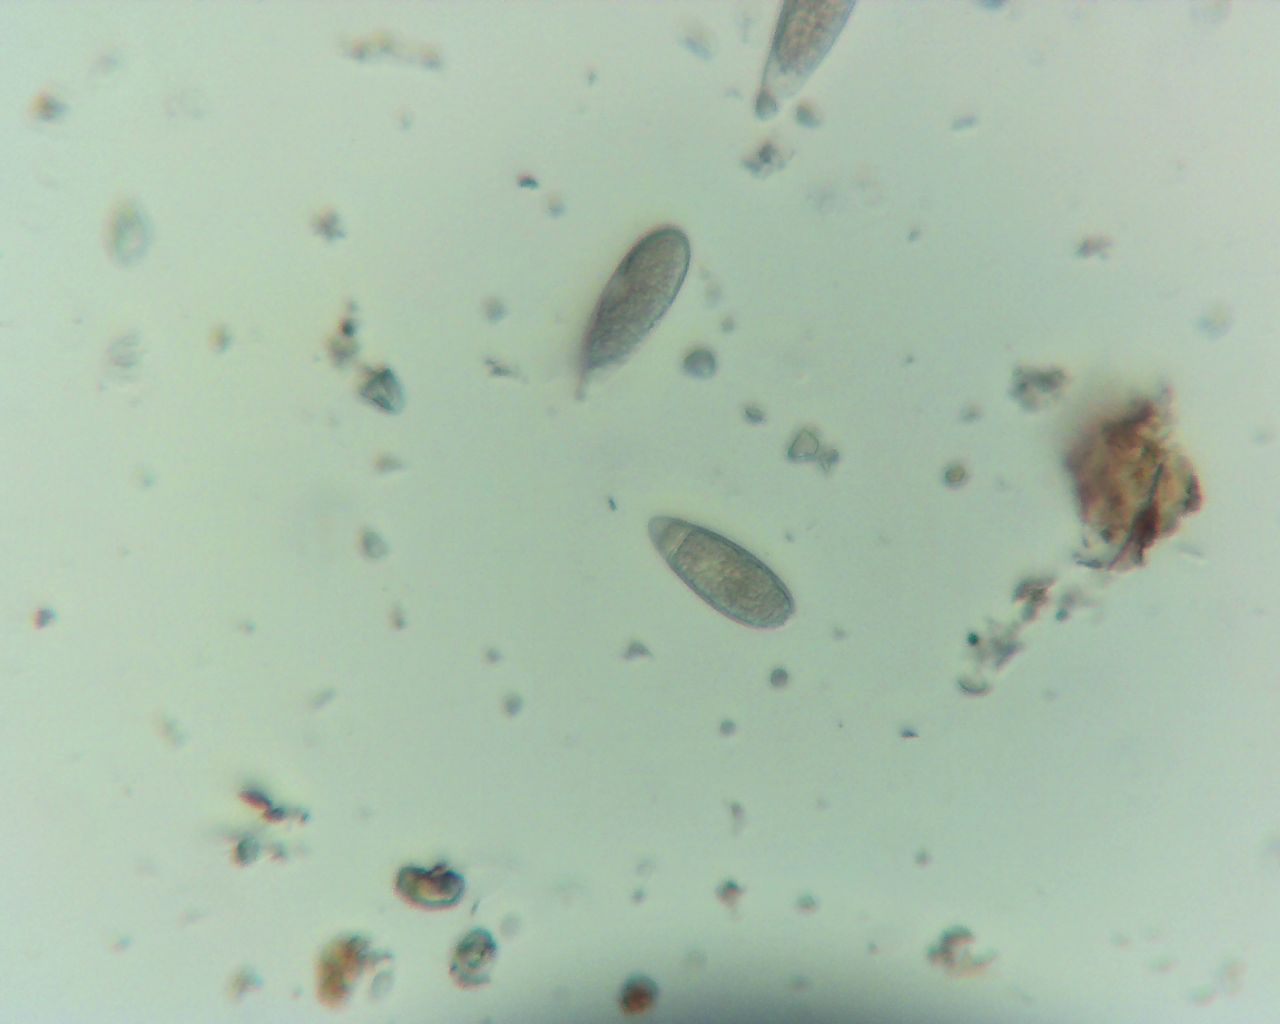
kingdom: Fungi
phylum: Ascomycota
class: Sordariomycetes
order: Xylariales
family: Pseudomassariaceae
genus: Pseudomassaria
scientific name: Pseudomassaria chondrospora
